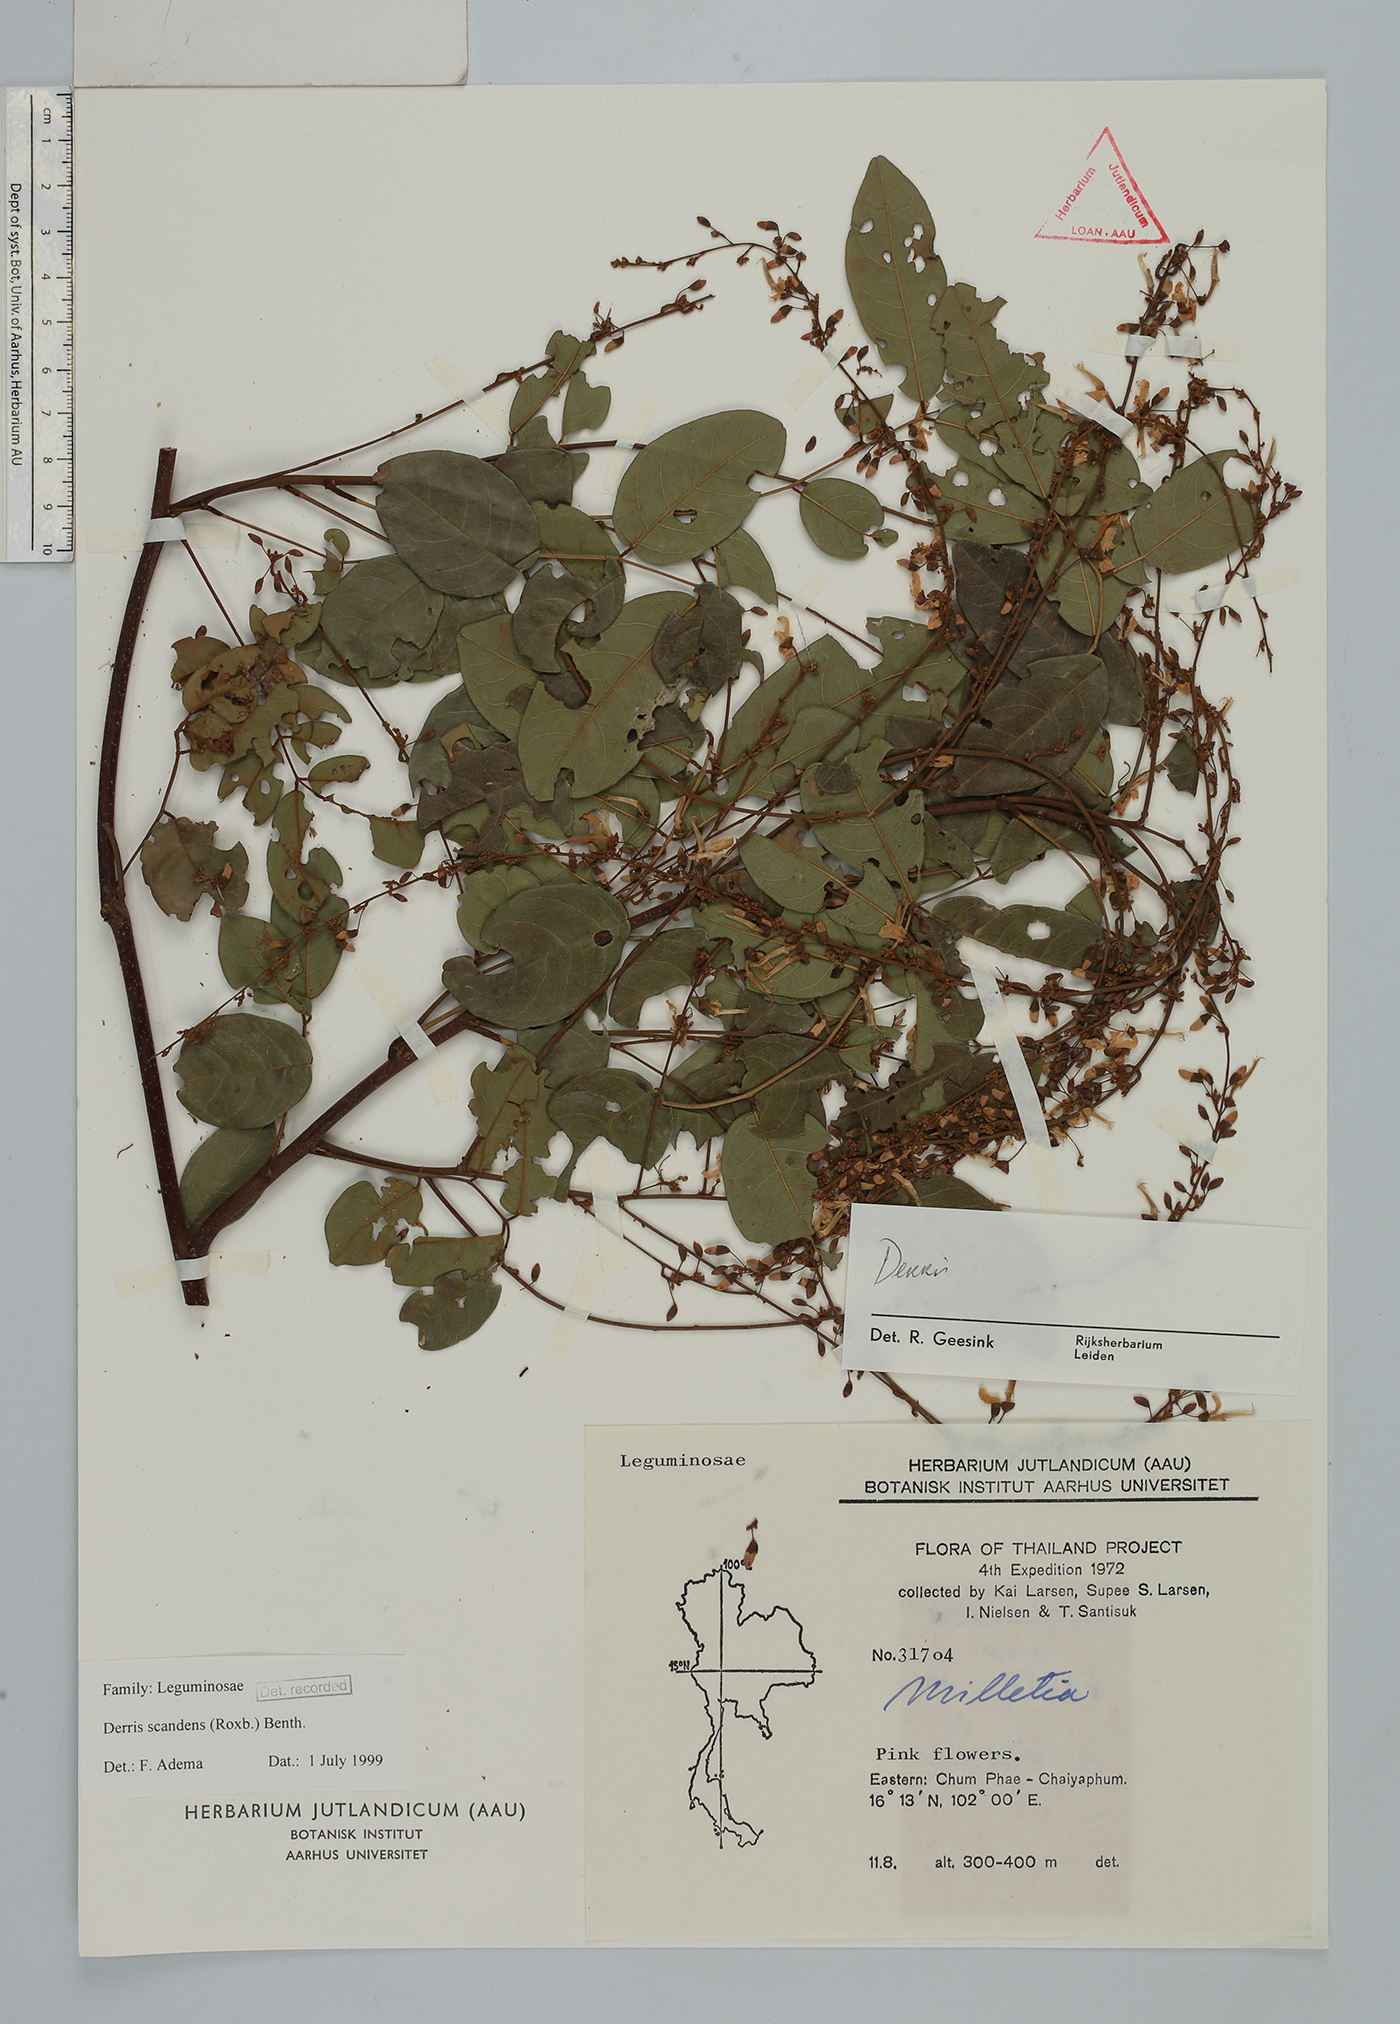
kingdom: Plantae
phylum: Tracheophyta
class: Magnoliopsida
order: Fabales
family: Fabaceae
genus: Brachypterum
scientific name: Brachypterum scandens
